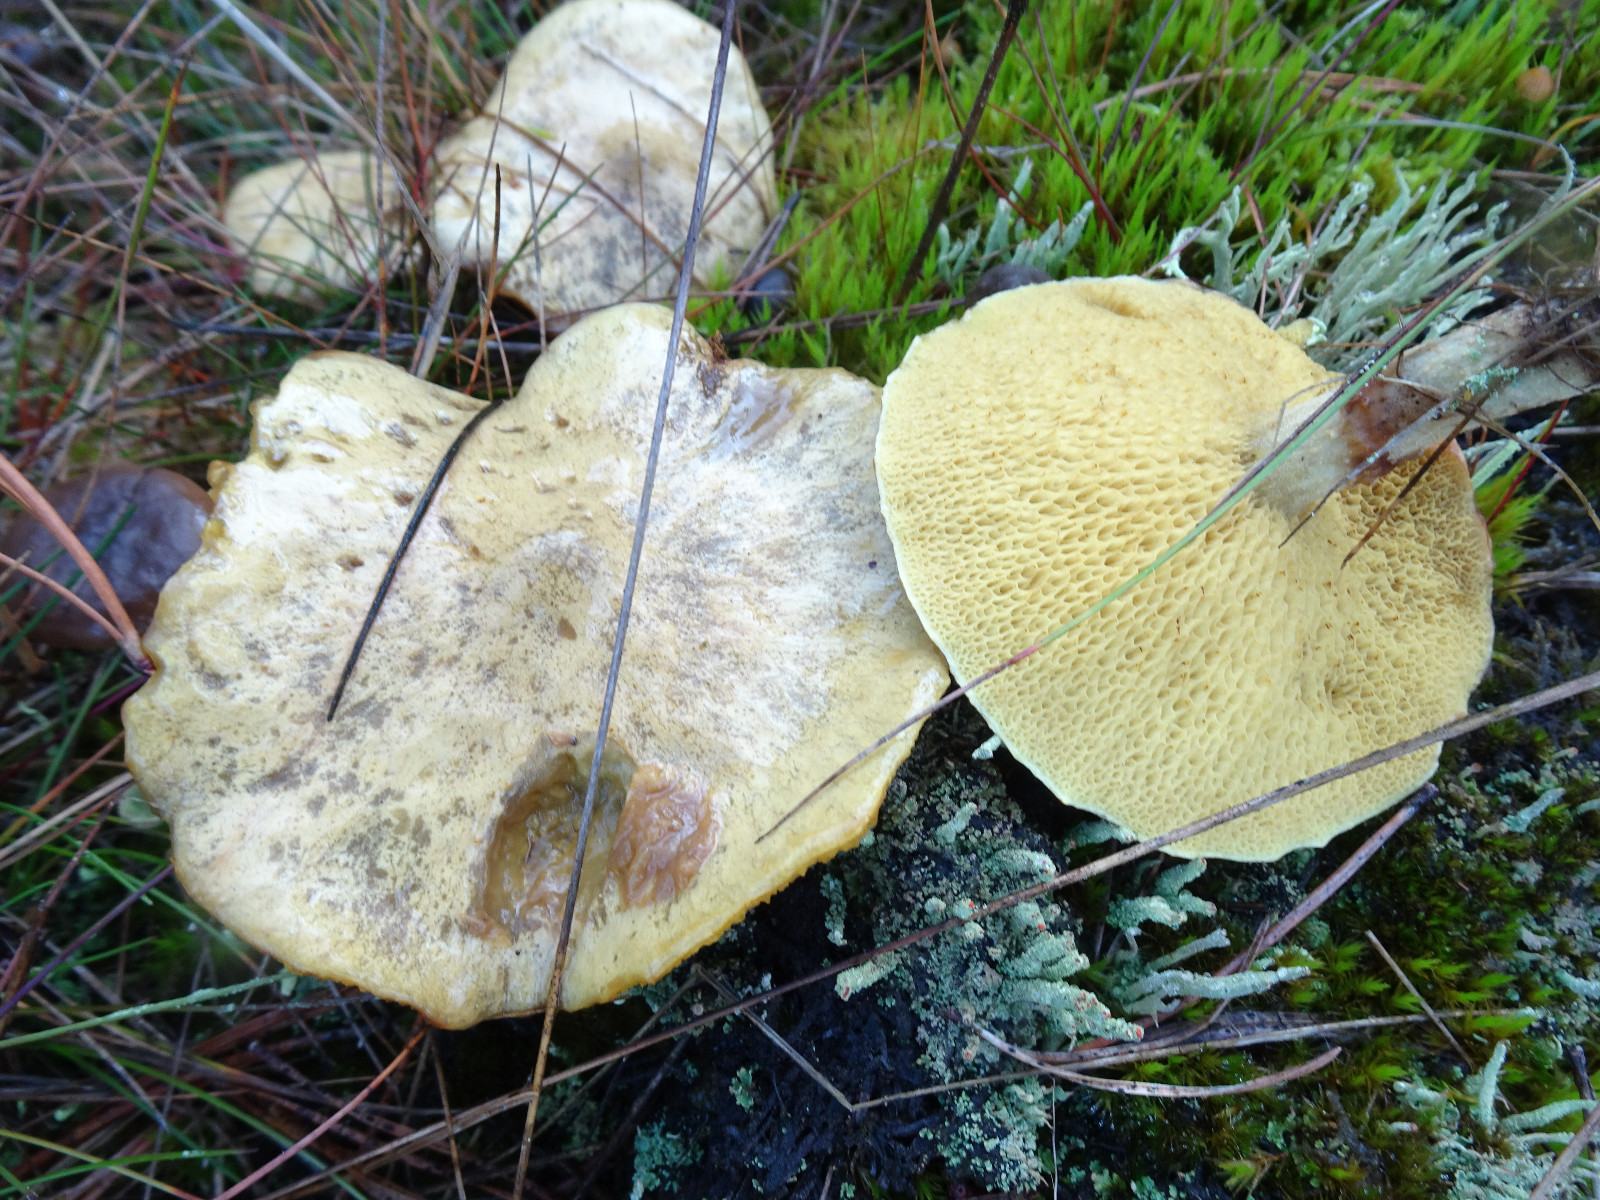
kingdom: Fungi
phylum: Basidiomycota
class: Agaricomycetes
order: Boletales
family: Suillaceae
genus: Suillus
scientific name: Suillus bovinus
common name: grovporet slimrørhat
